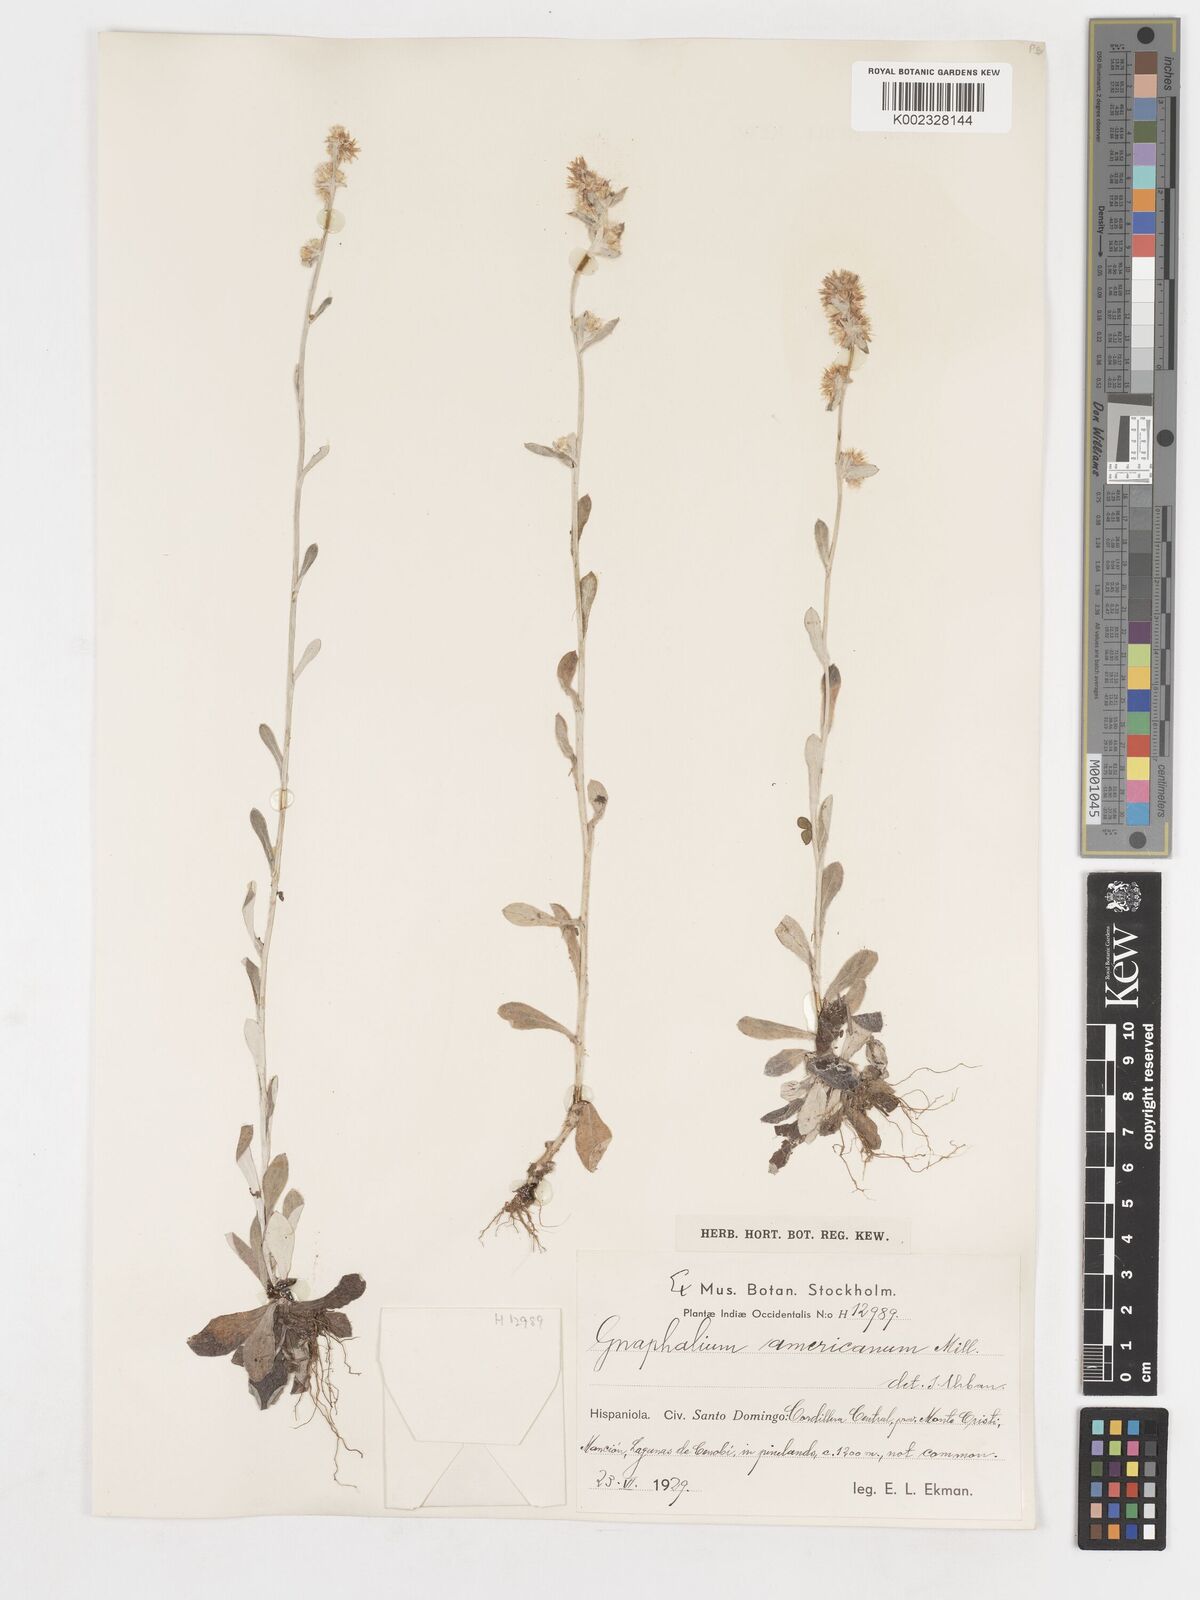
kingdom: Plantae
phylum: Tracheophyta
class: Magnoliopsida
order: Asterales
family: Asteraceae
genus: Gamochaeta
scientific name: Gamochaeta americana
